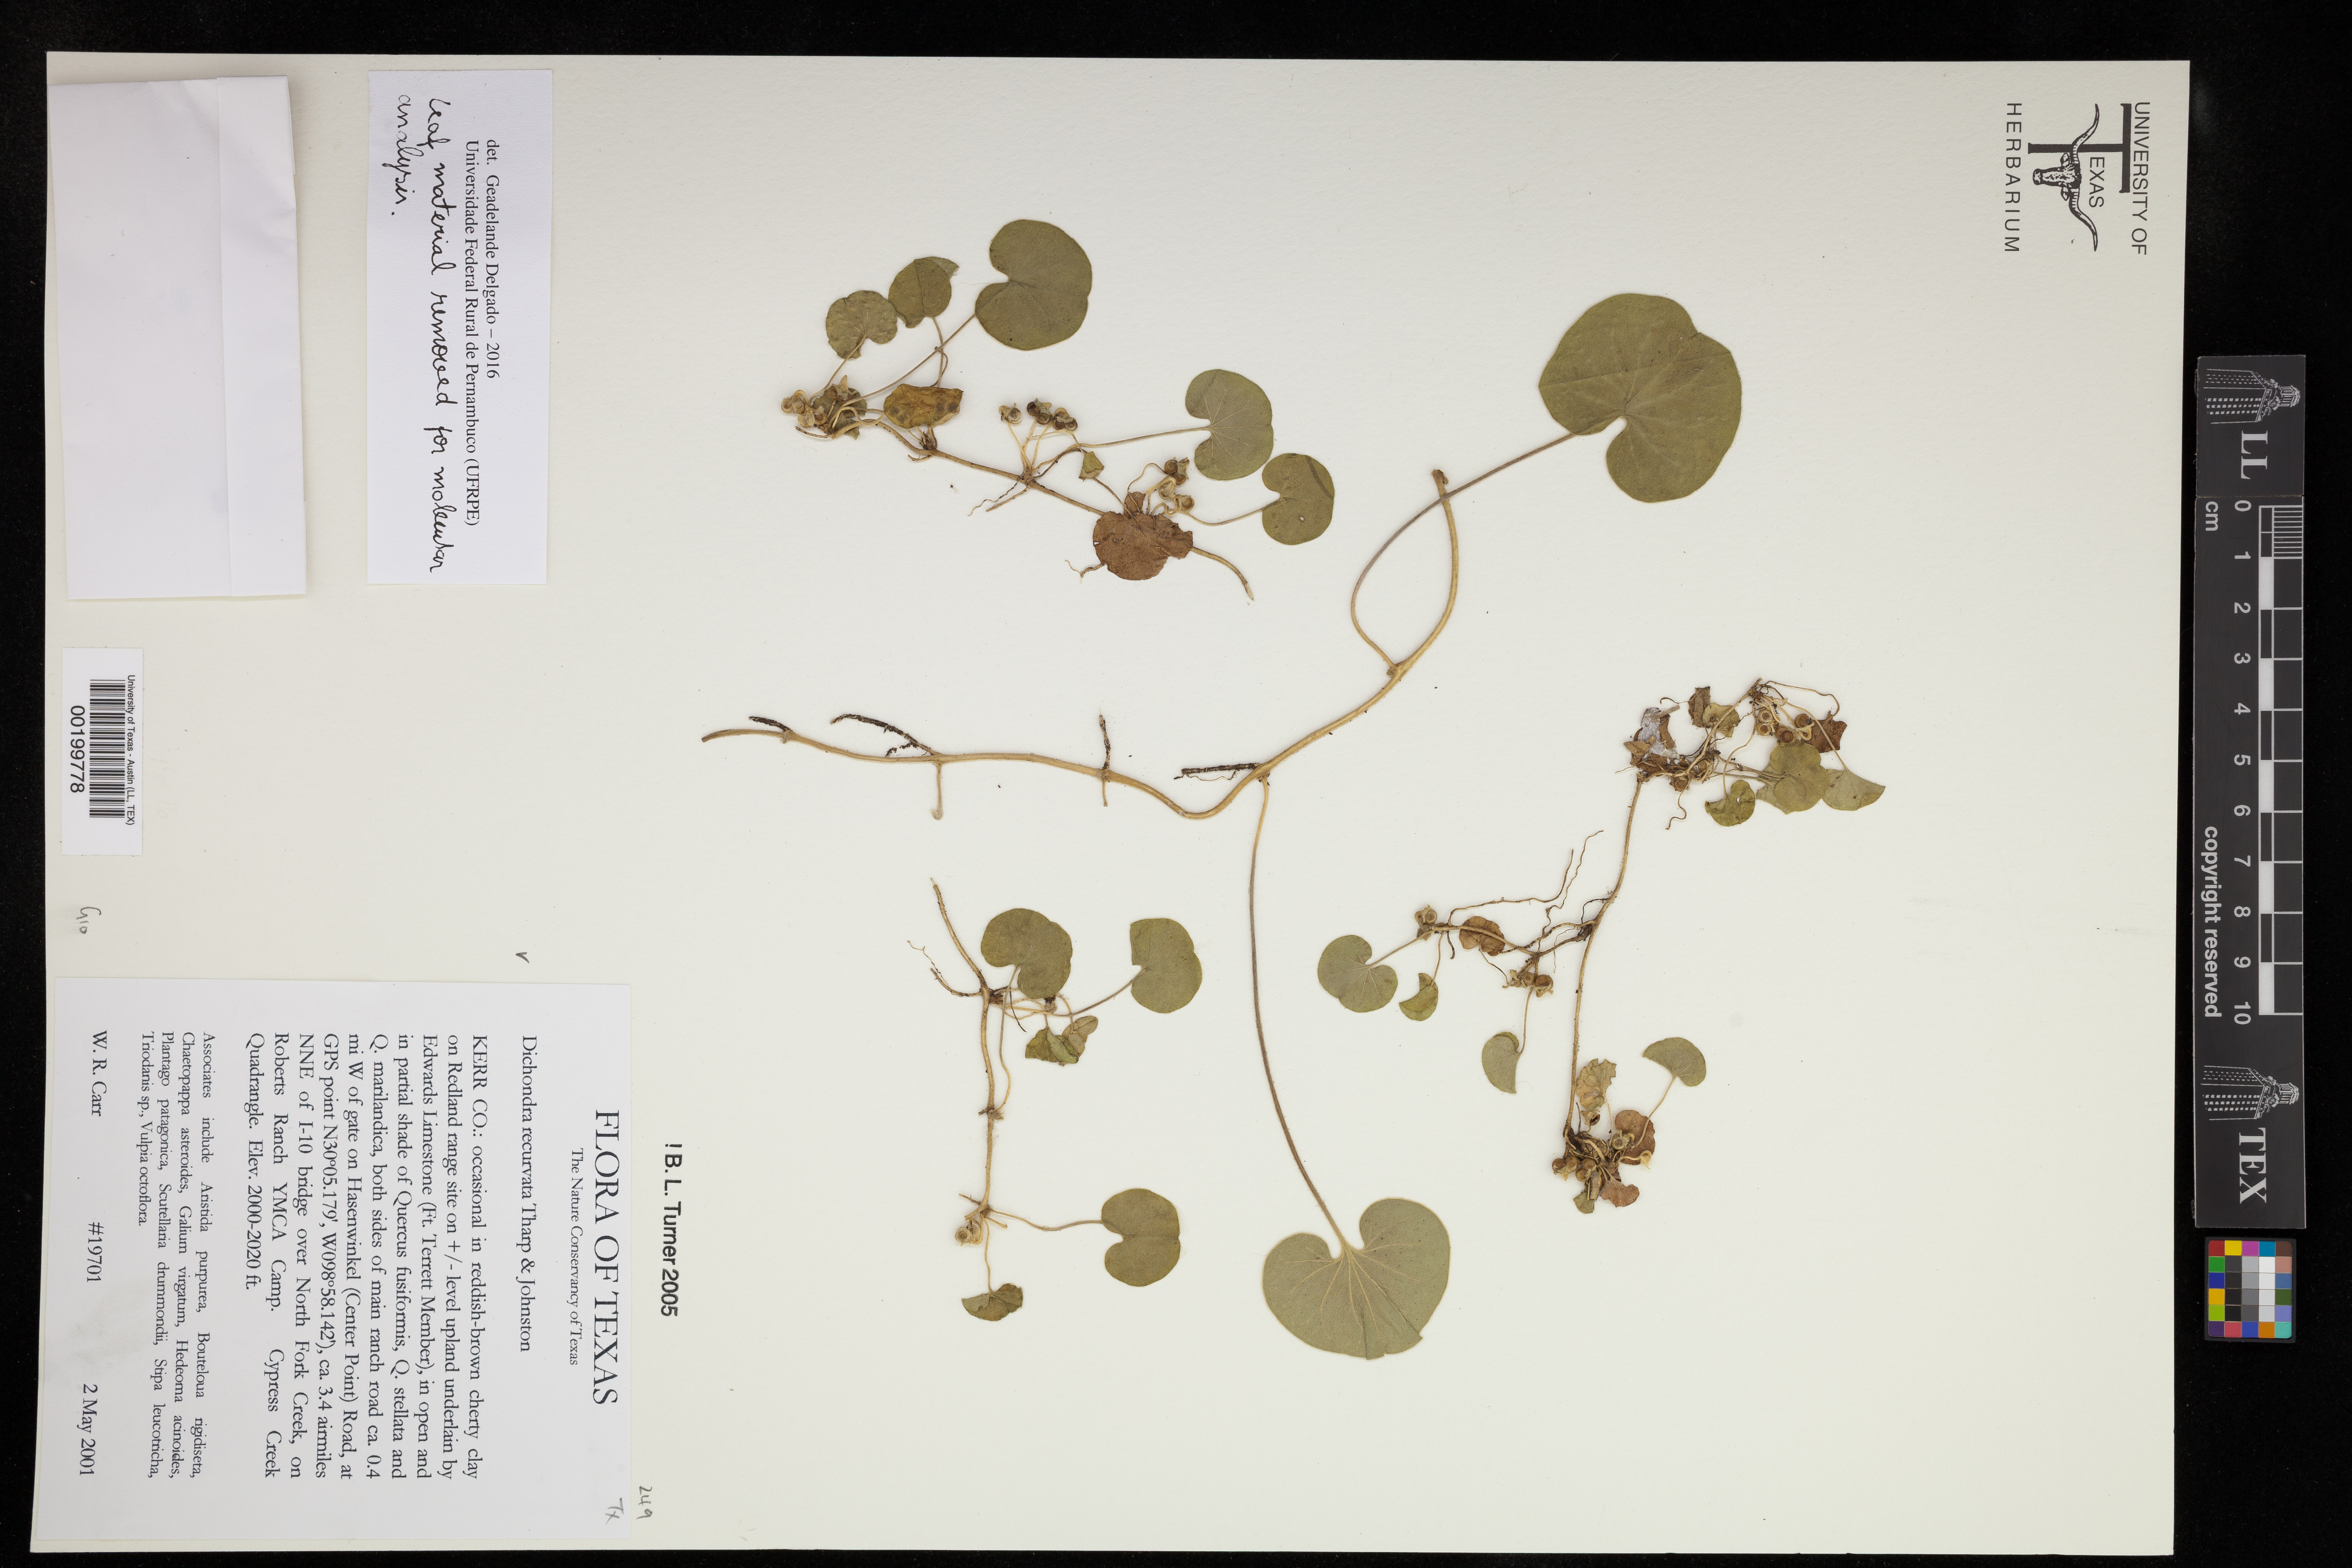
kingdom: Plantae
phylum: Tracheophyta
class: Magnoliopsida
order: Solanales
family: Convolvulaceae
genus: Dichondra
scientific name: Dichondra recurvata
